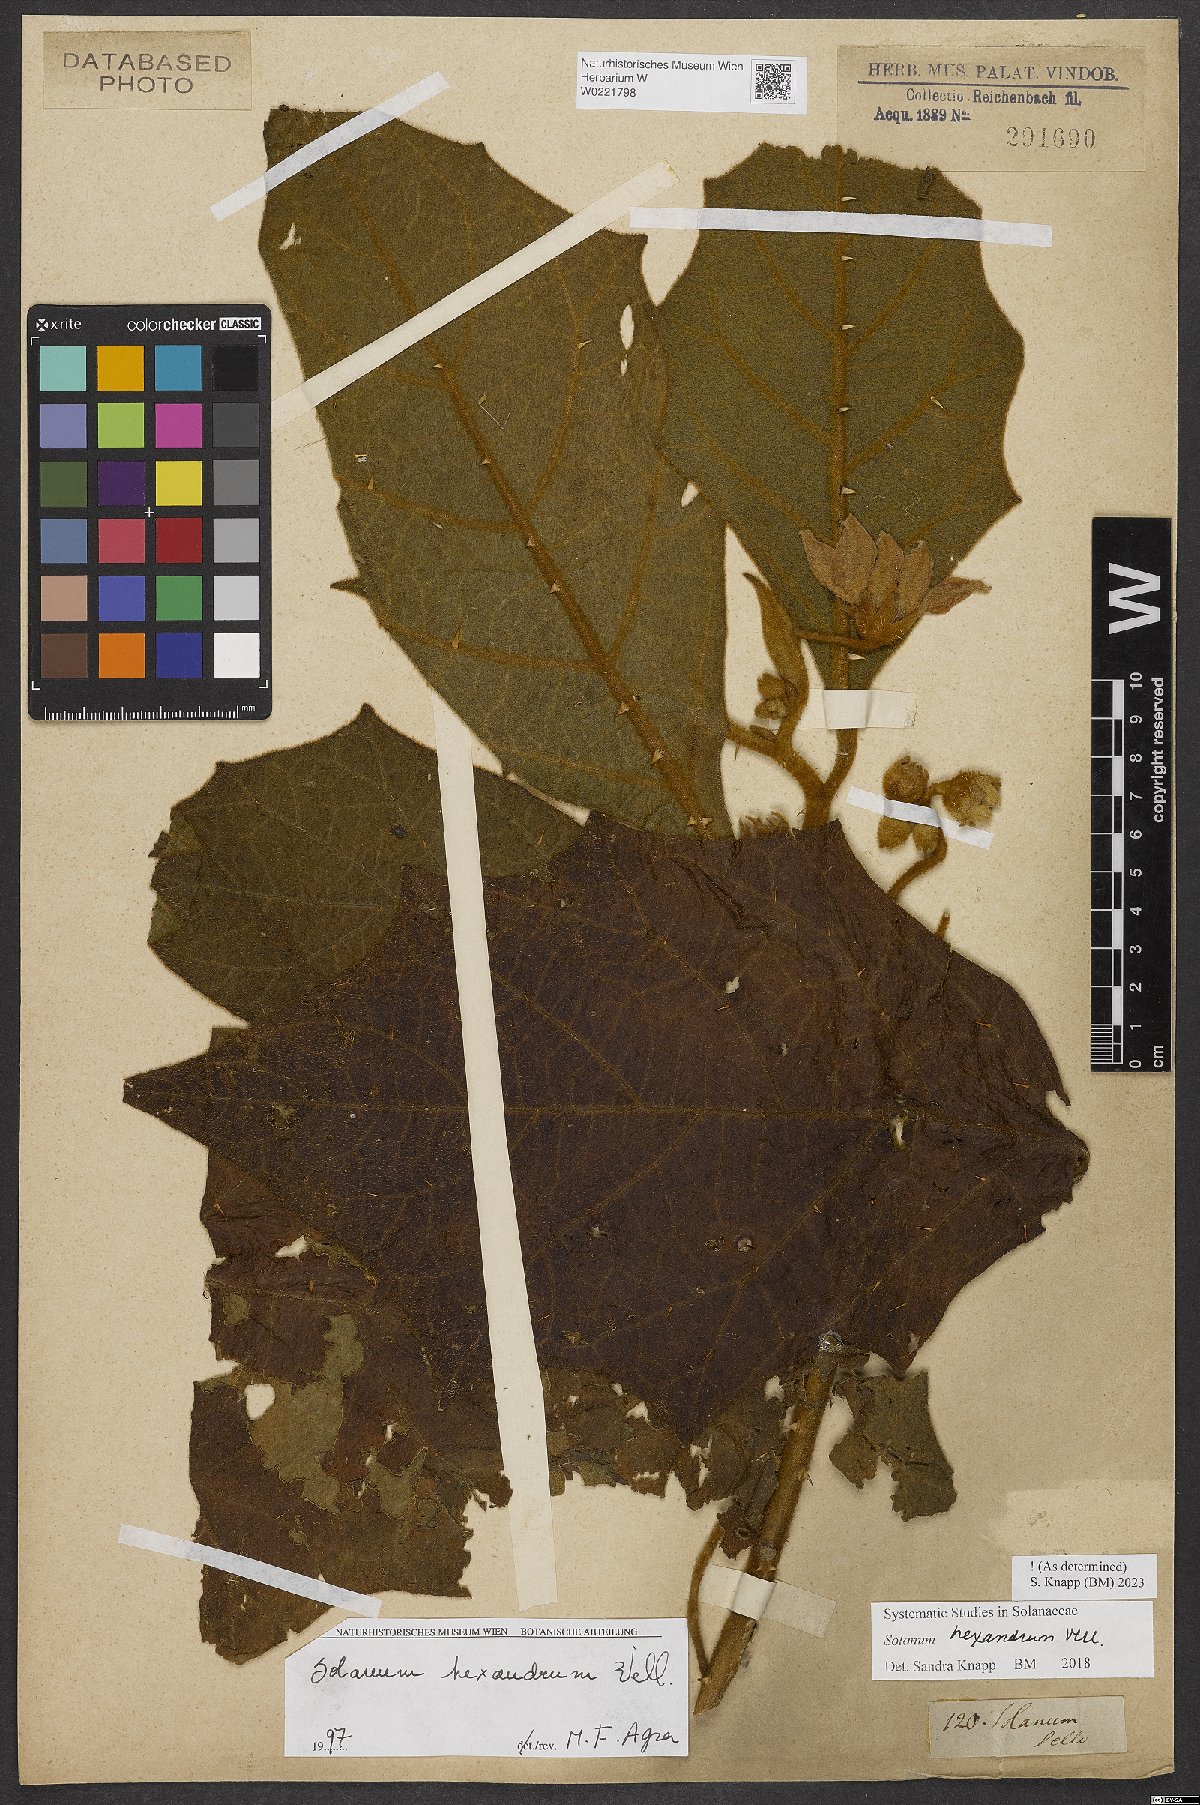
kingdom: Plantae
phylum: Tracheophyta
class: Magnoliopsida
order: Solanales
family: Solanaceae
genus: Solanum
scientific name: Solanum hexandrum
